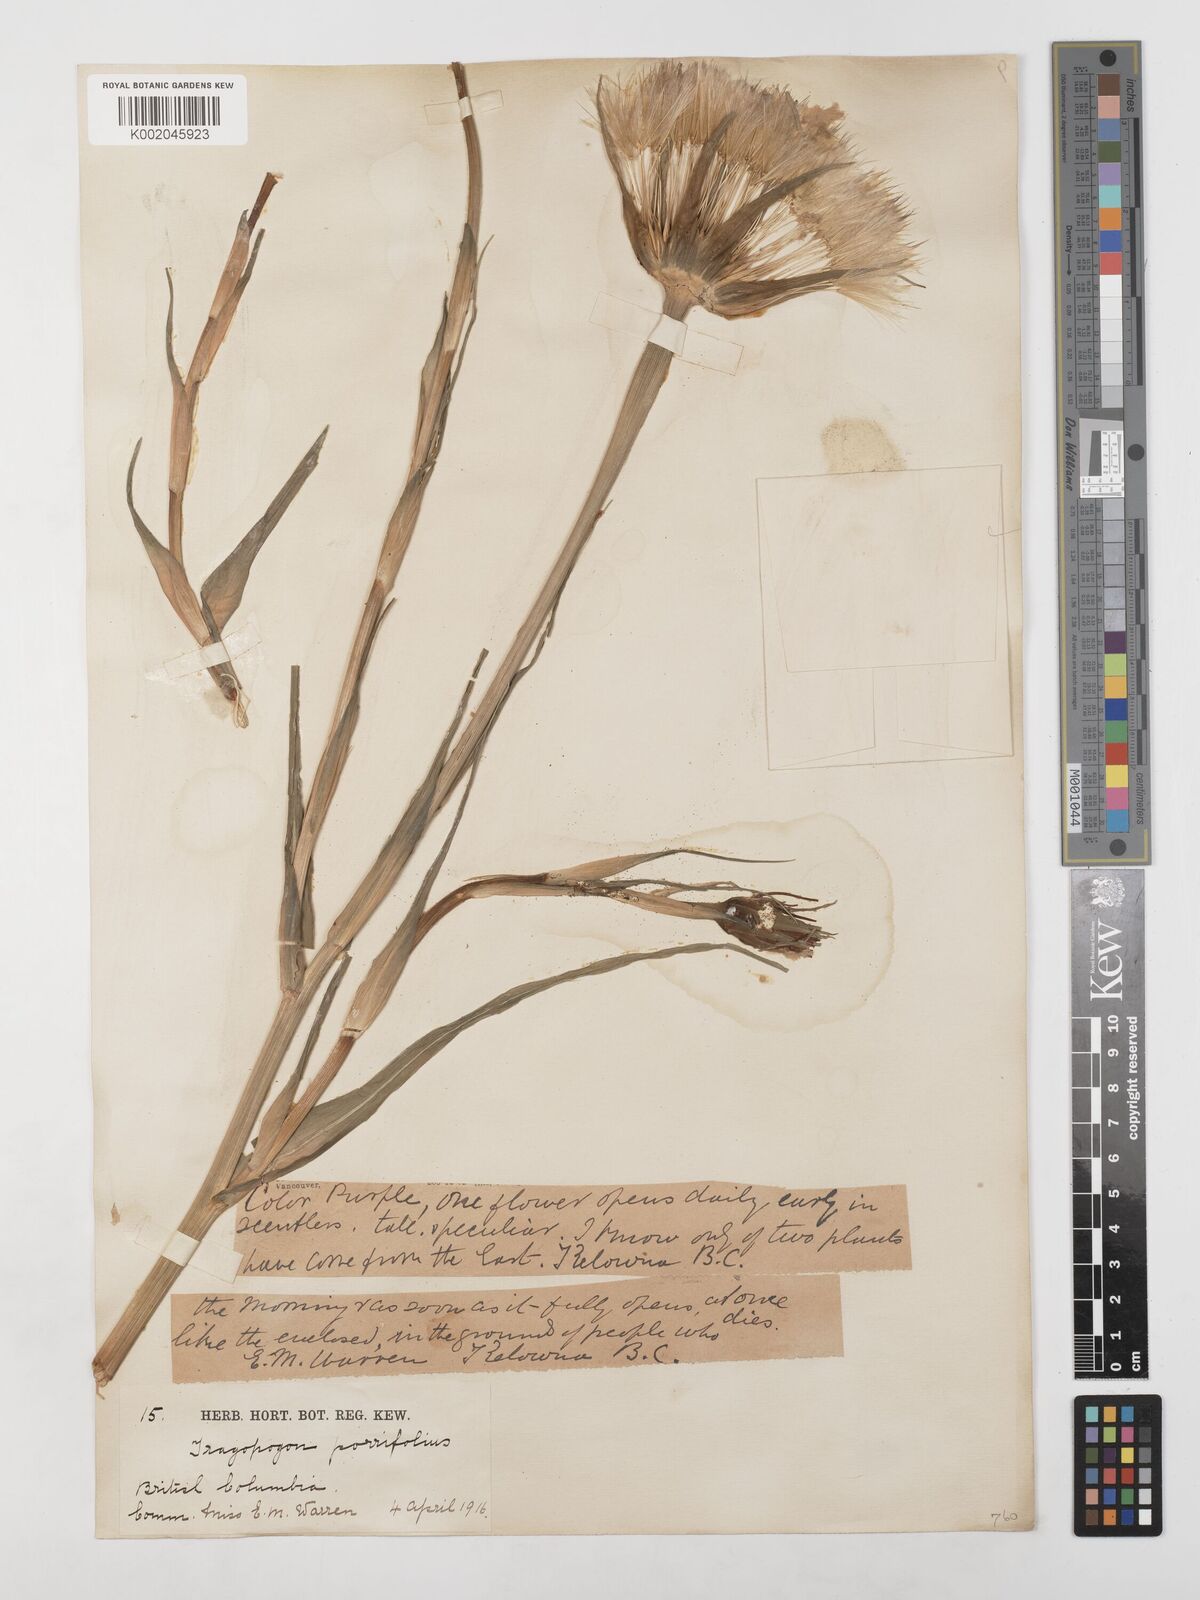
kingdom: Plantae
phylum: Tracheophyta
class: Magnoliopsida
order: Asterales
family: Asteraceae
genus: Tragopogon
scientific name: Tragopogon porrifolius
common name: Salsify
